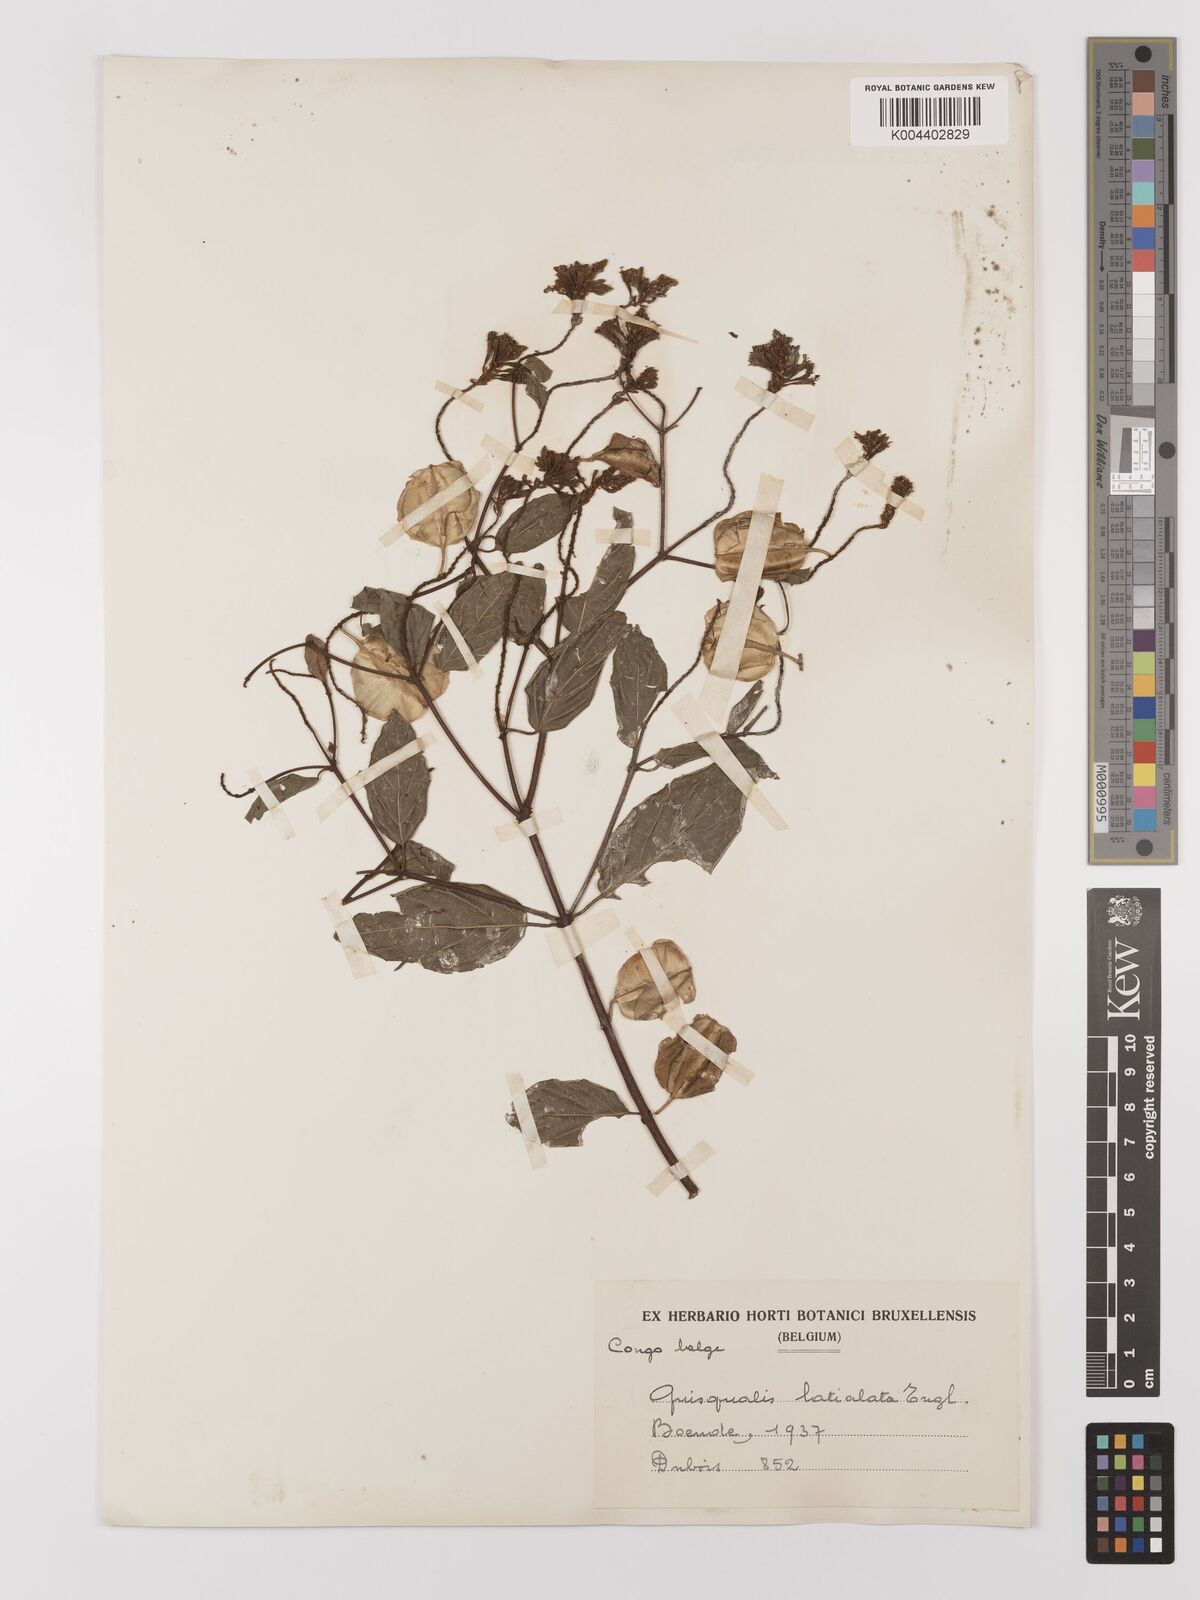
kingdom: Plantae
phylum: Tracheophyta
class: Magnoliopsida
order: Myrtales
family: Combretaceae
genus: Combretum
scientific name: Combretum latialatum
